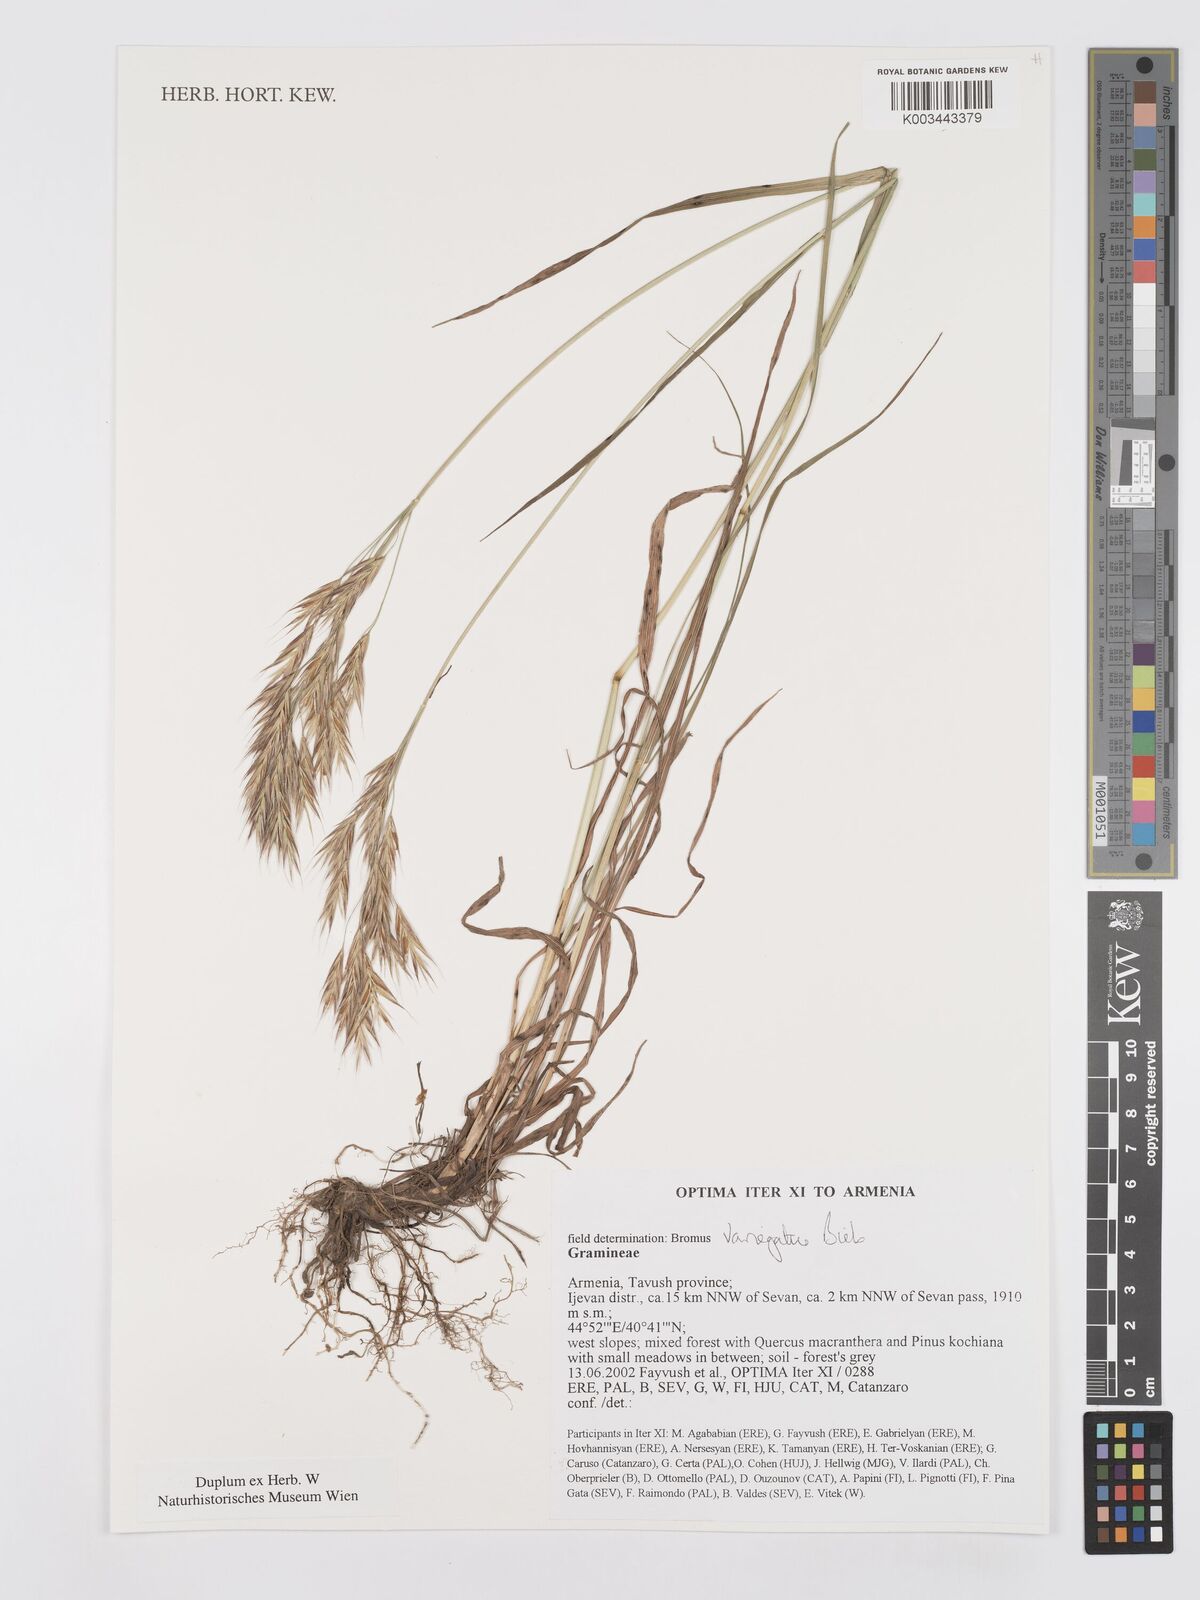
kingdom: Plantae
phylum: Tracheophyta
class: Liliopsida
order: Poales
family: Poaceae
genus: Bromus
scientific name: Bromus variegatus
